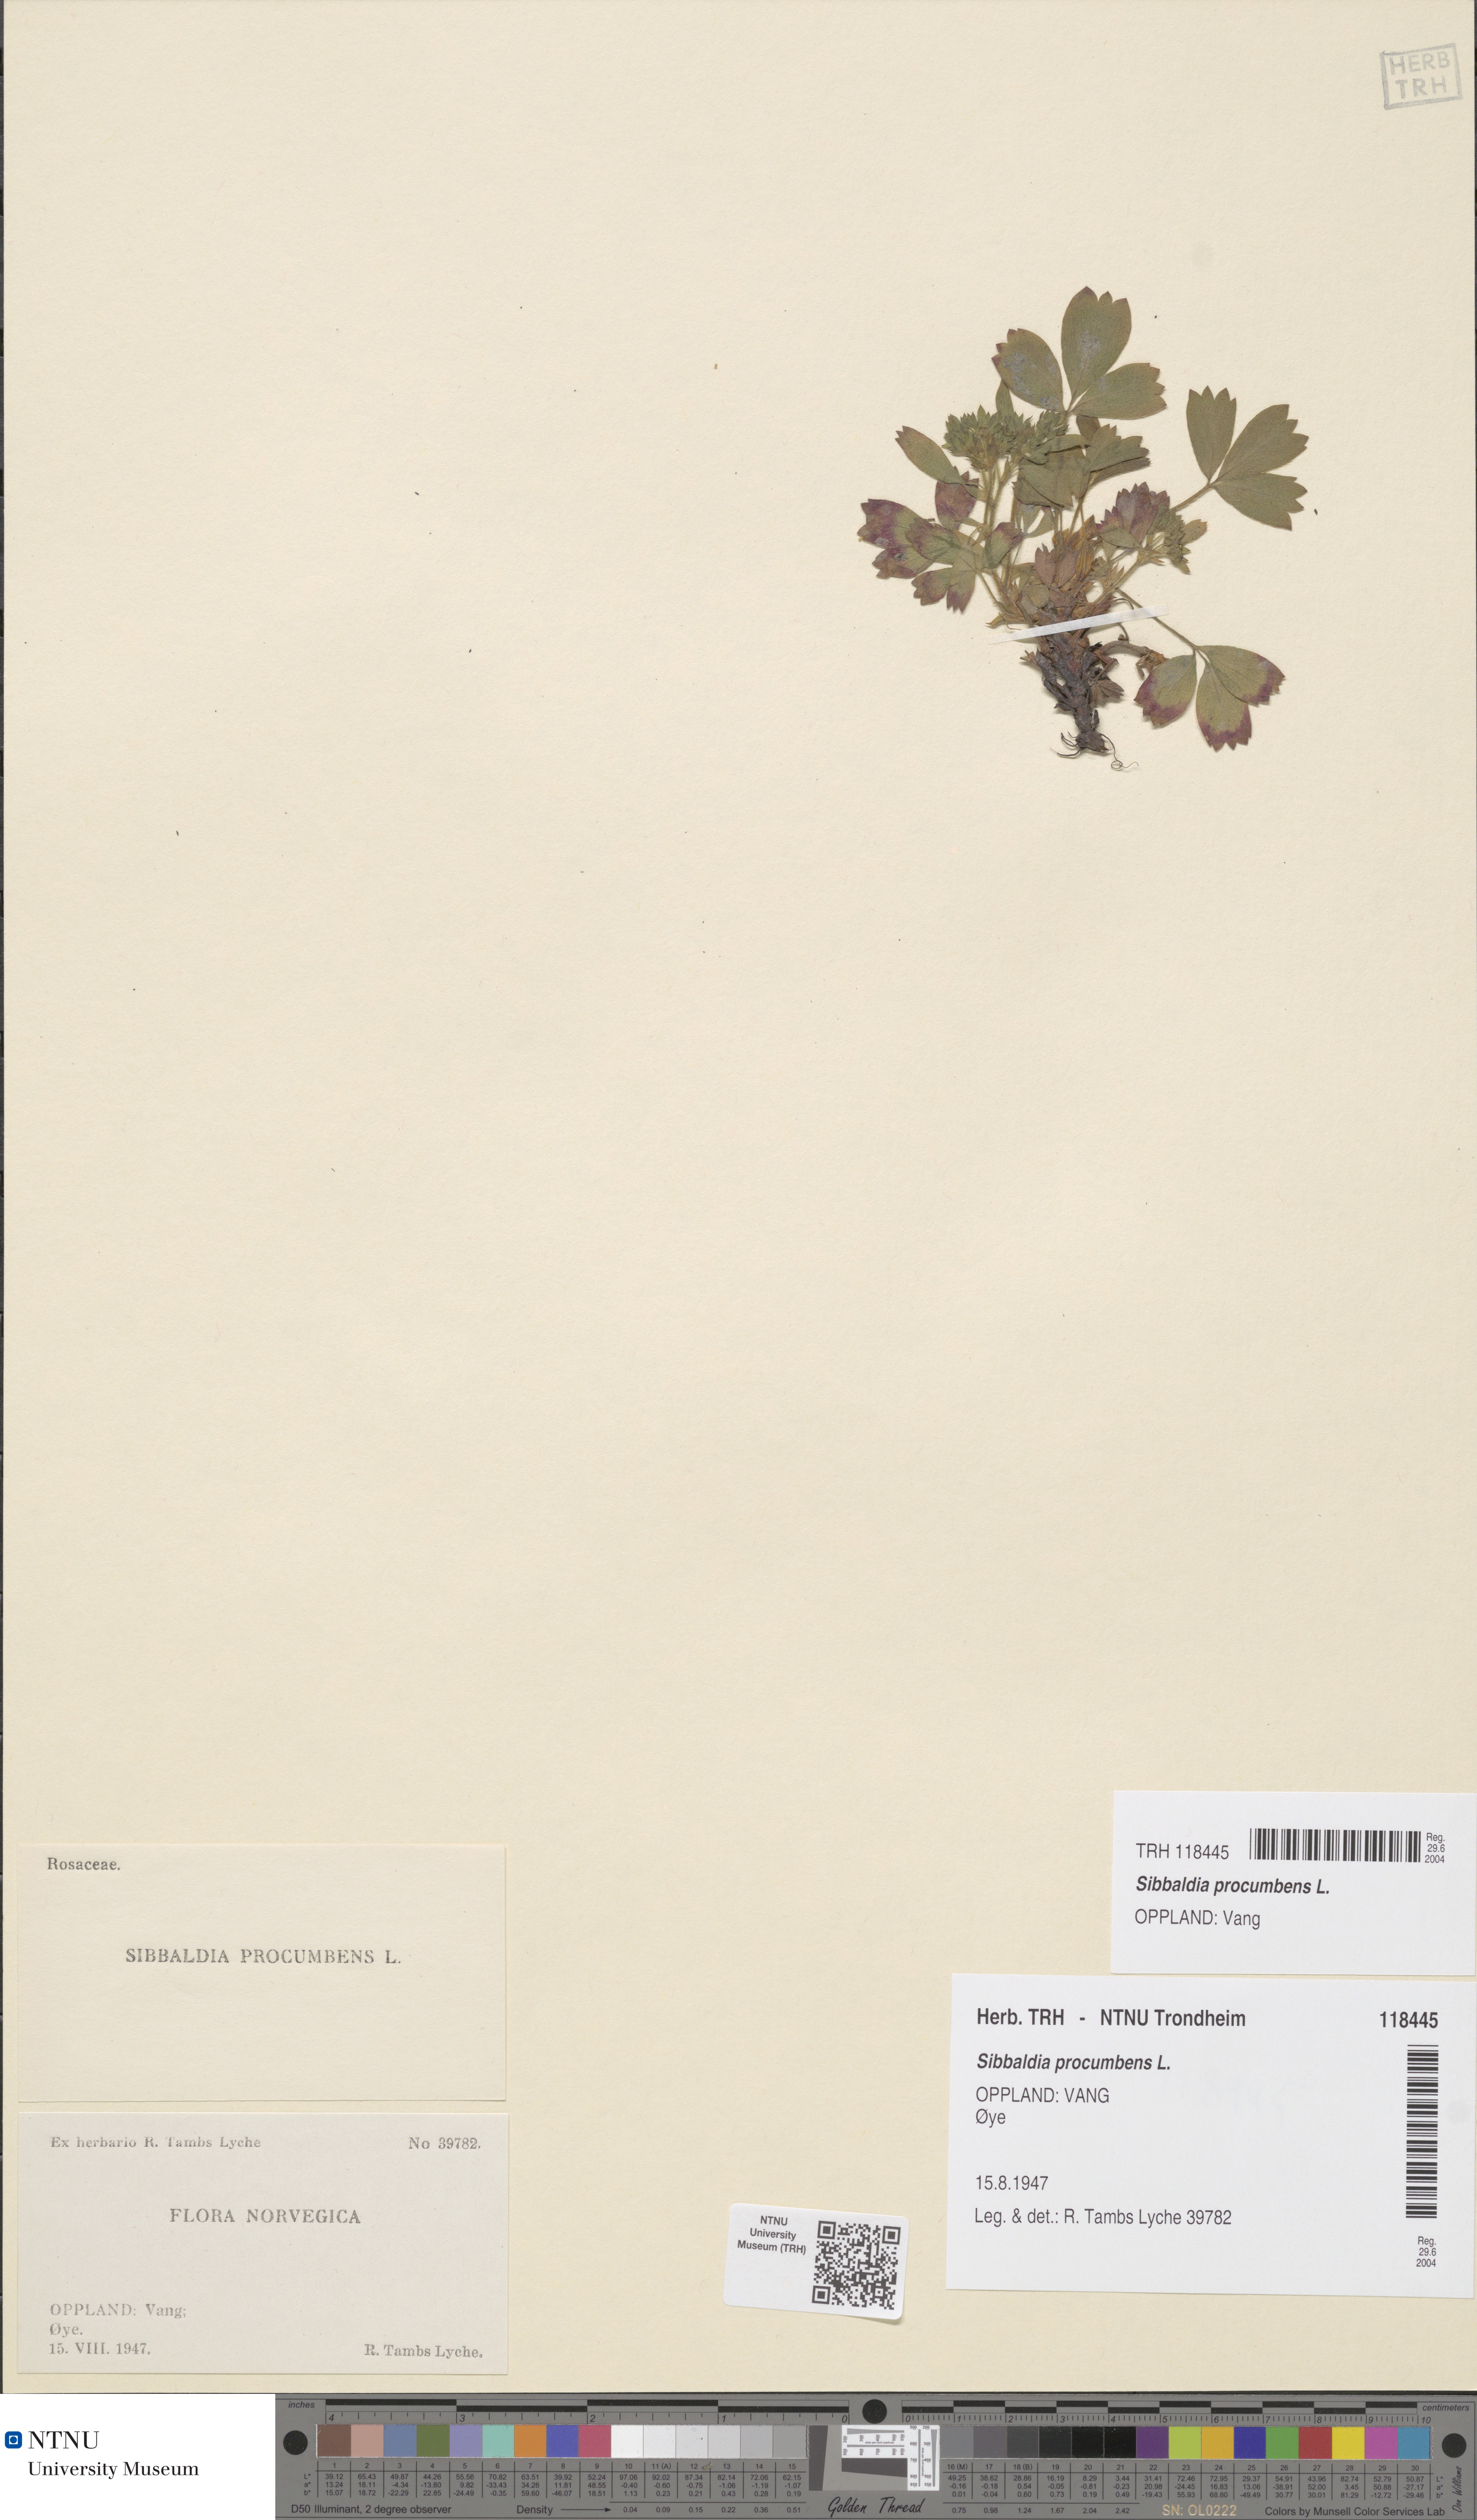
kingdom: Plantae
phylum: Tracheophyta
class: Magnoliopsida
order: Rosales
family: Rosaceae
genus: Sibbaldia
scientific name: Sibbaldia procumbens
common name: Creeping sibbaldia
